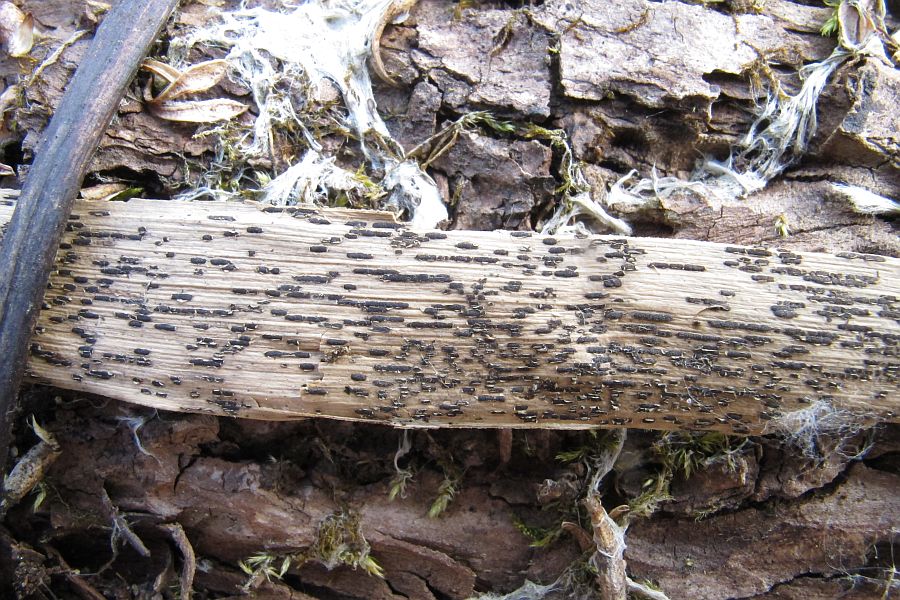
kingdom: Fungi
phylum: Basidiomycota
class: Pucciniomycetes
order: Pucciniales
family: Pucciniaceae
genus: Puccinia
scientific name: Puccinia phragmitis
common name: tagrør-tvecellerust
